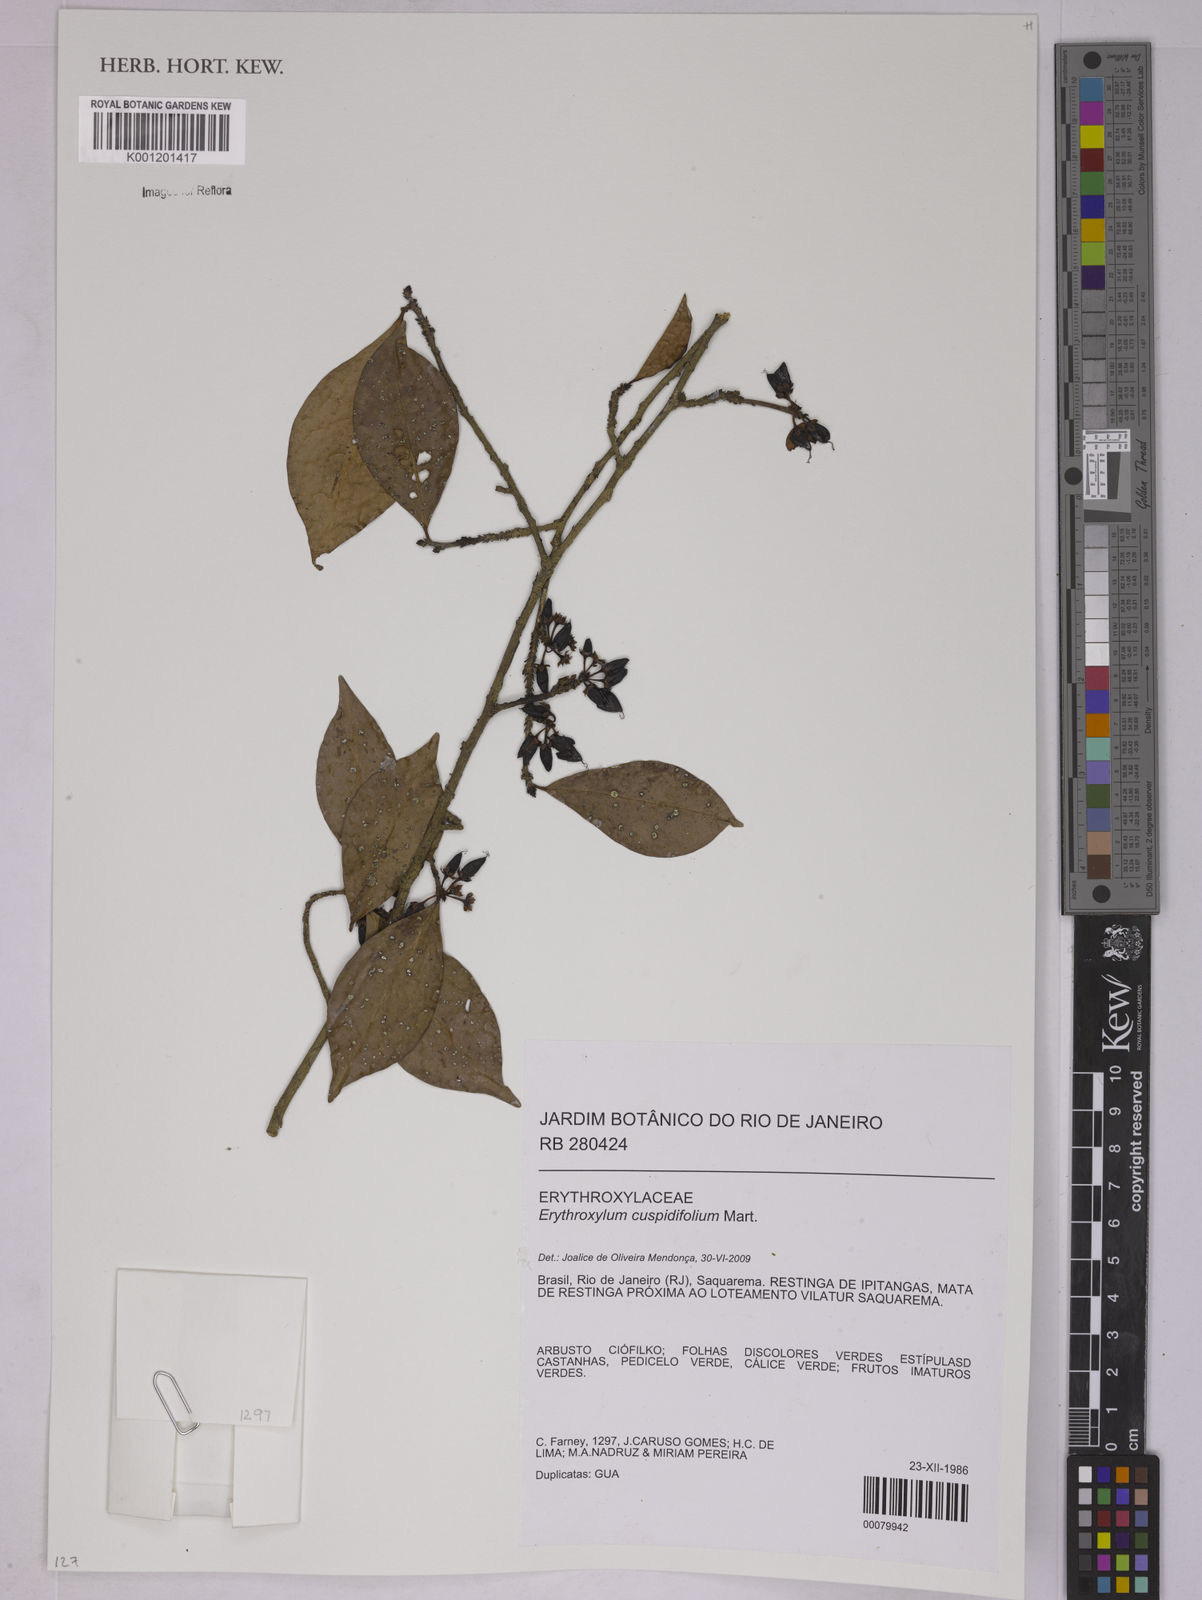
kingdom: Plantae
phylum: Tracheophyta
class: Magnoliopsida
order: Malpighiales
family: Erythroxylaceae
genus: Erythroxylum
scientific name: Erythroxylum cuspidifolium
